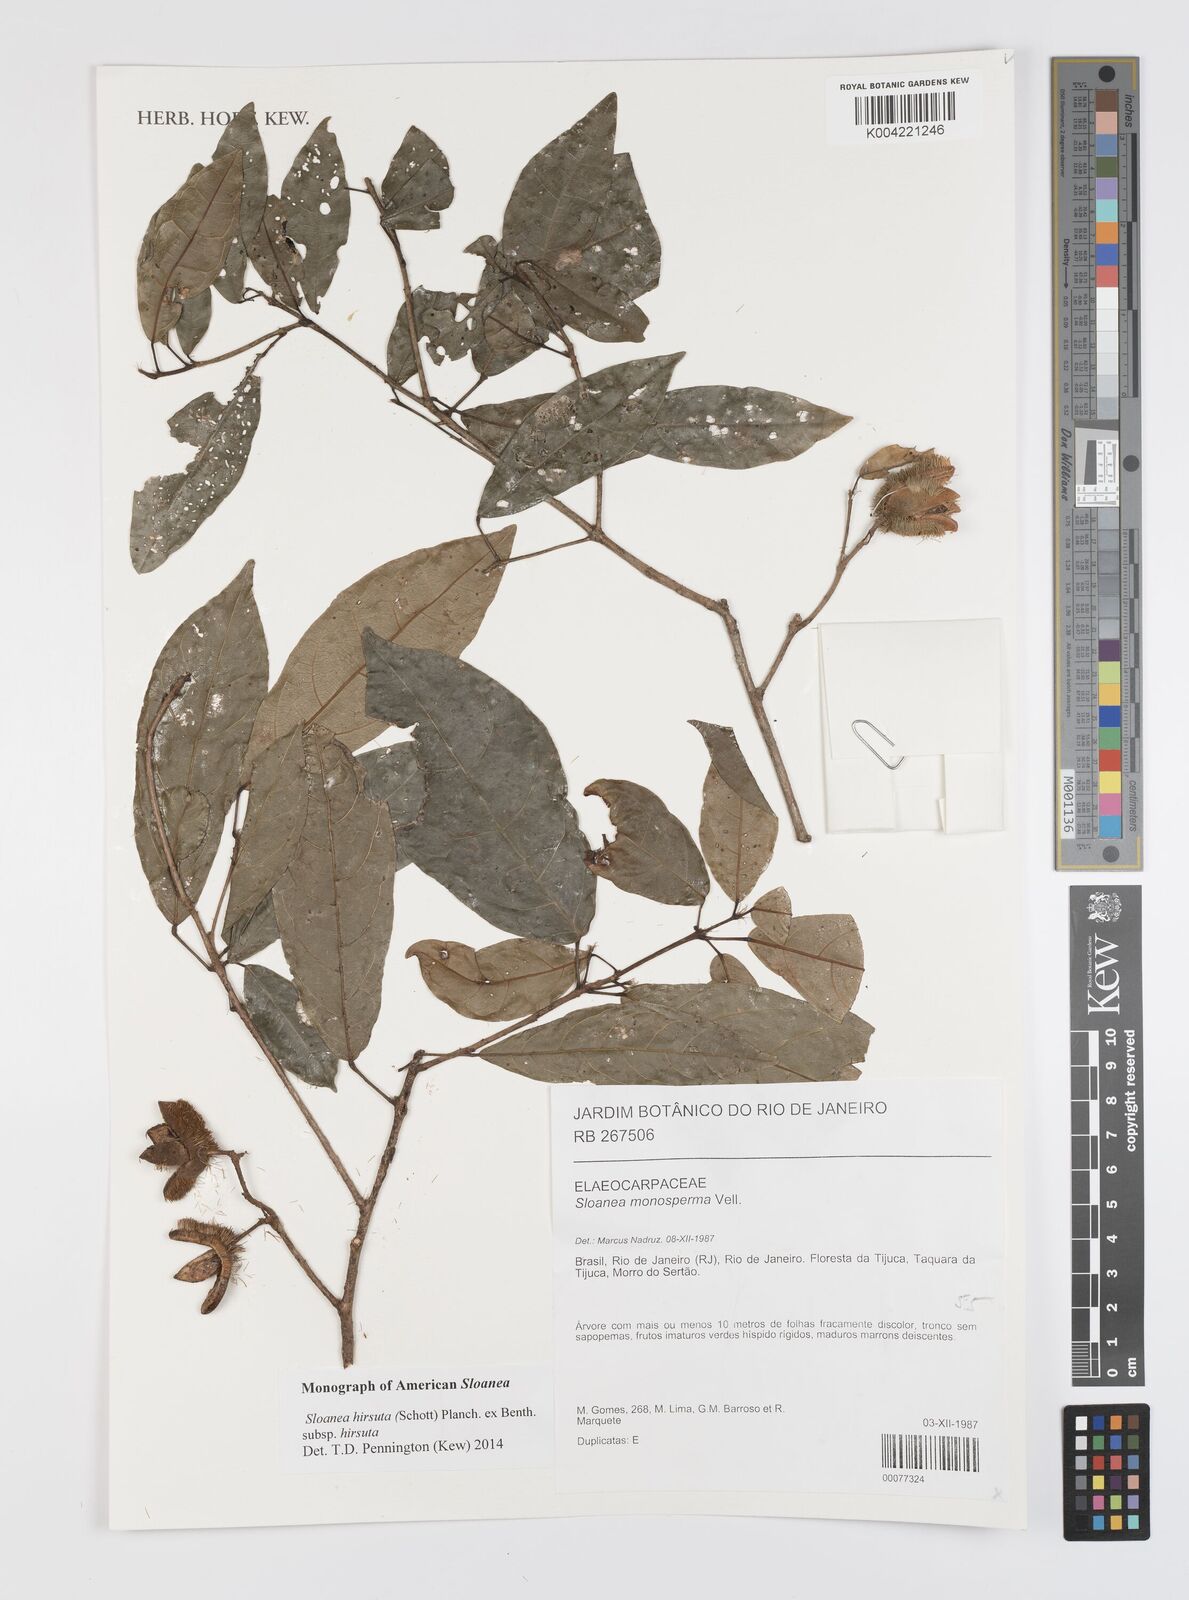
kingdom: Plantae
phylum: Tracheophyta
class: Magnoliopsida
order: Oxalidales
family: Elaeocarpaceae
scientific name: Elaeocarpaceae
